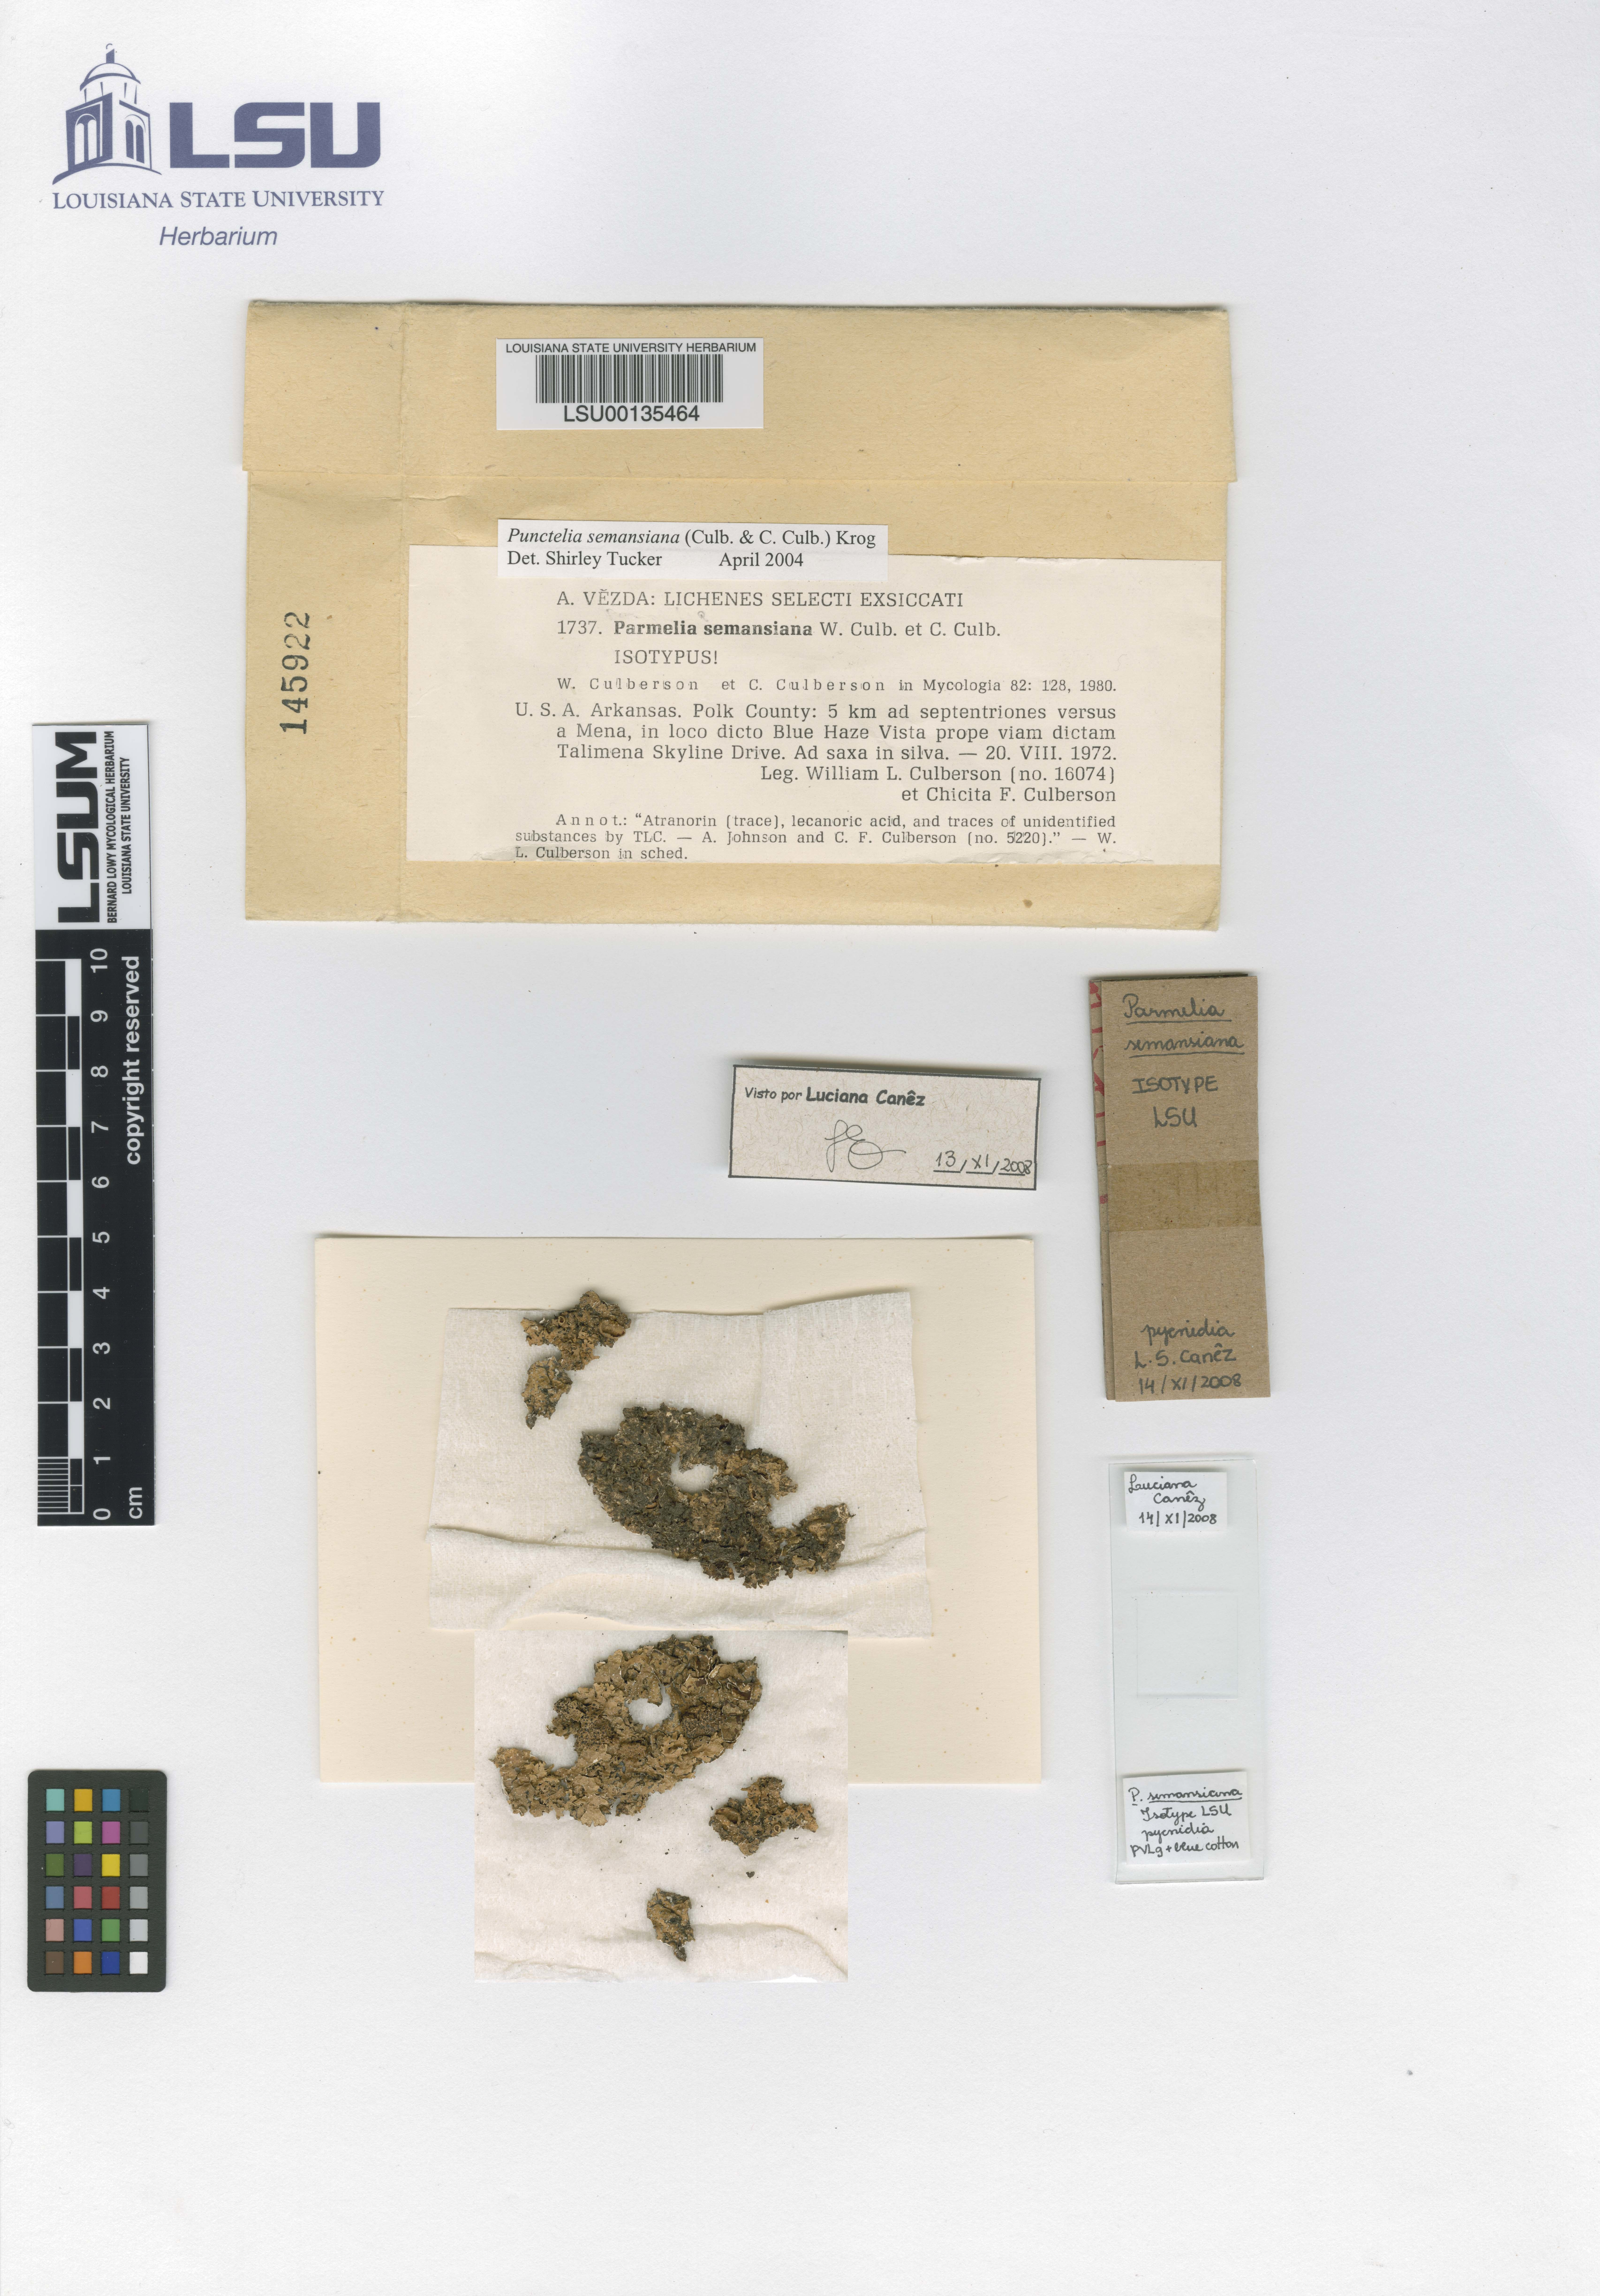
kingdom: Fungi
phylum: Ascomycota
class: Lecanoromycetes
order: Lecanorales
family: Parmeliaceae
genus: Punctelia
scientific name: Punctelia semansiana
